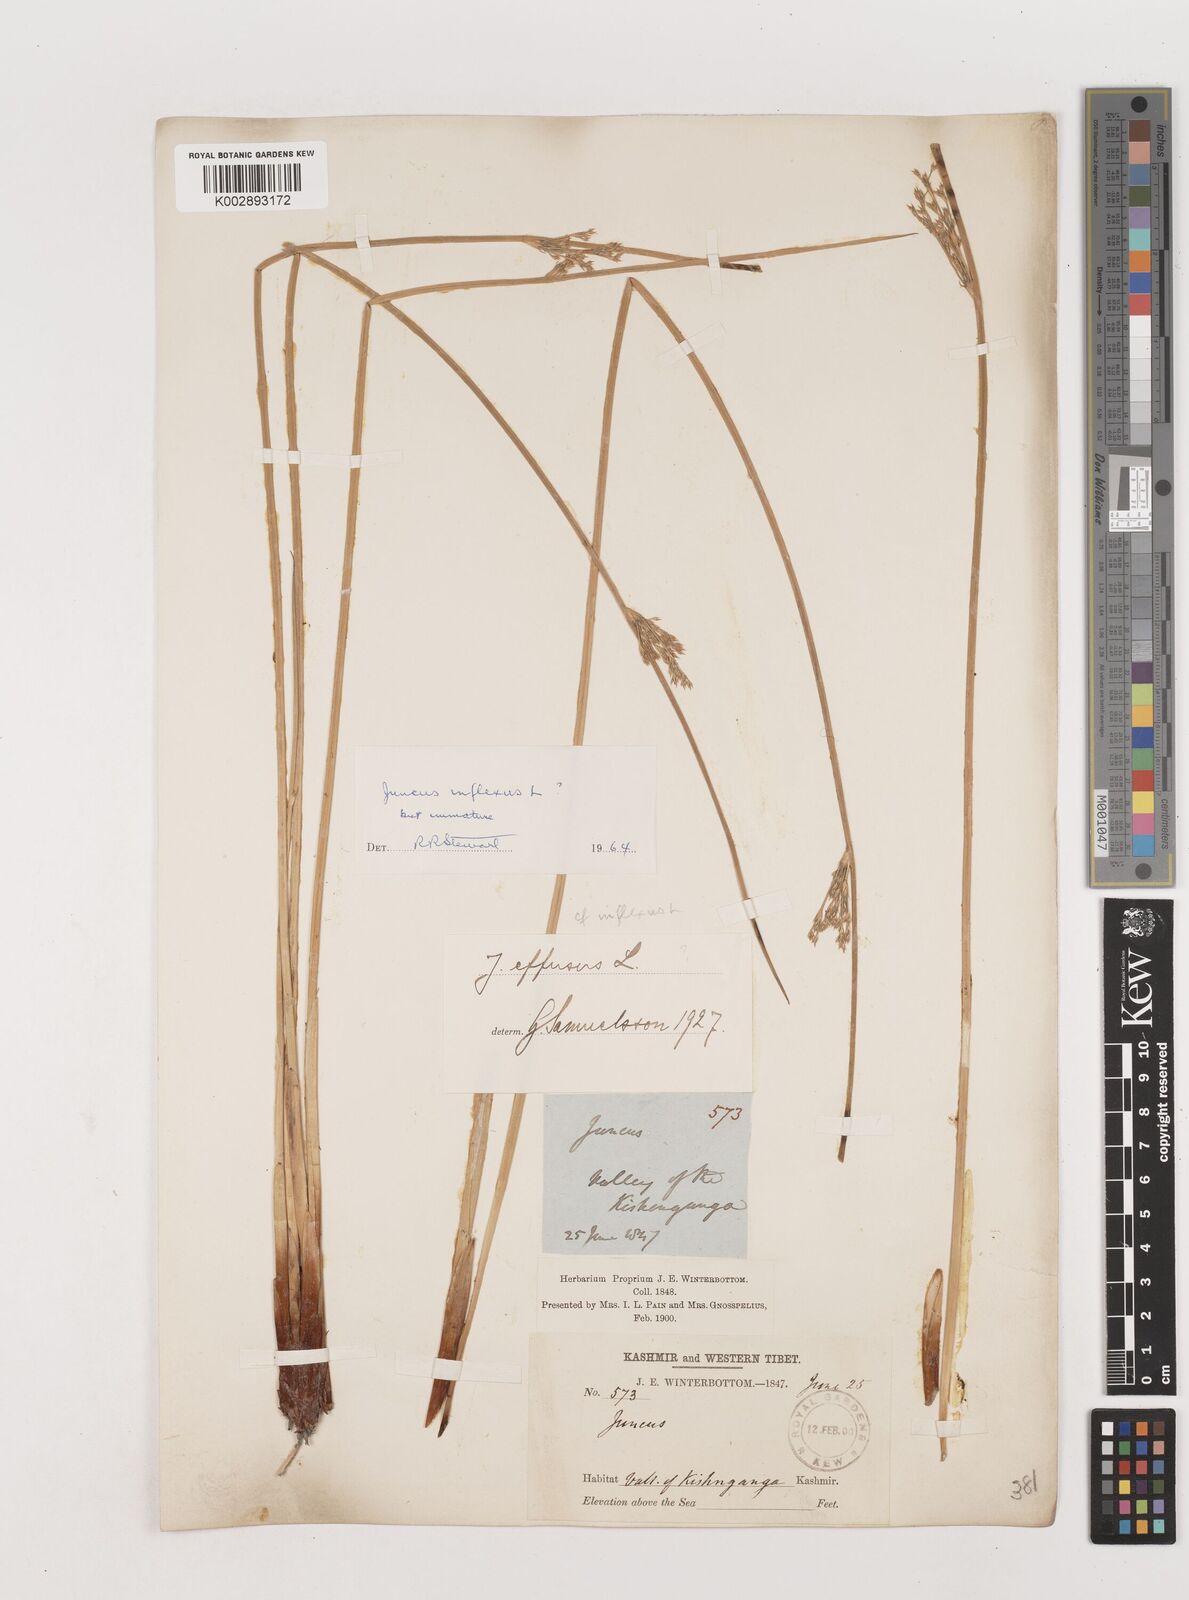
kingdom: Plantae
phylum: Tracheophyta
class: Liliopsida
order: Poales
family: Juncaceae
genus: Juncus
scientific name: Juncus inflexus
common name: Hard rush
